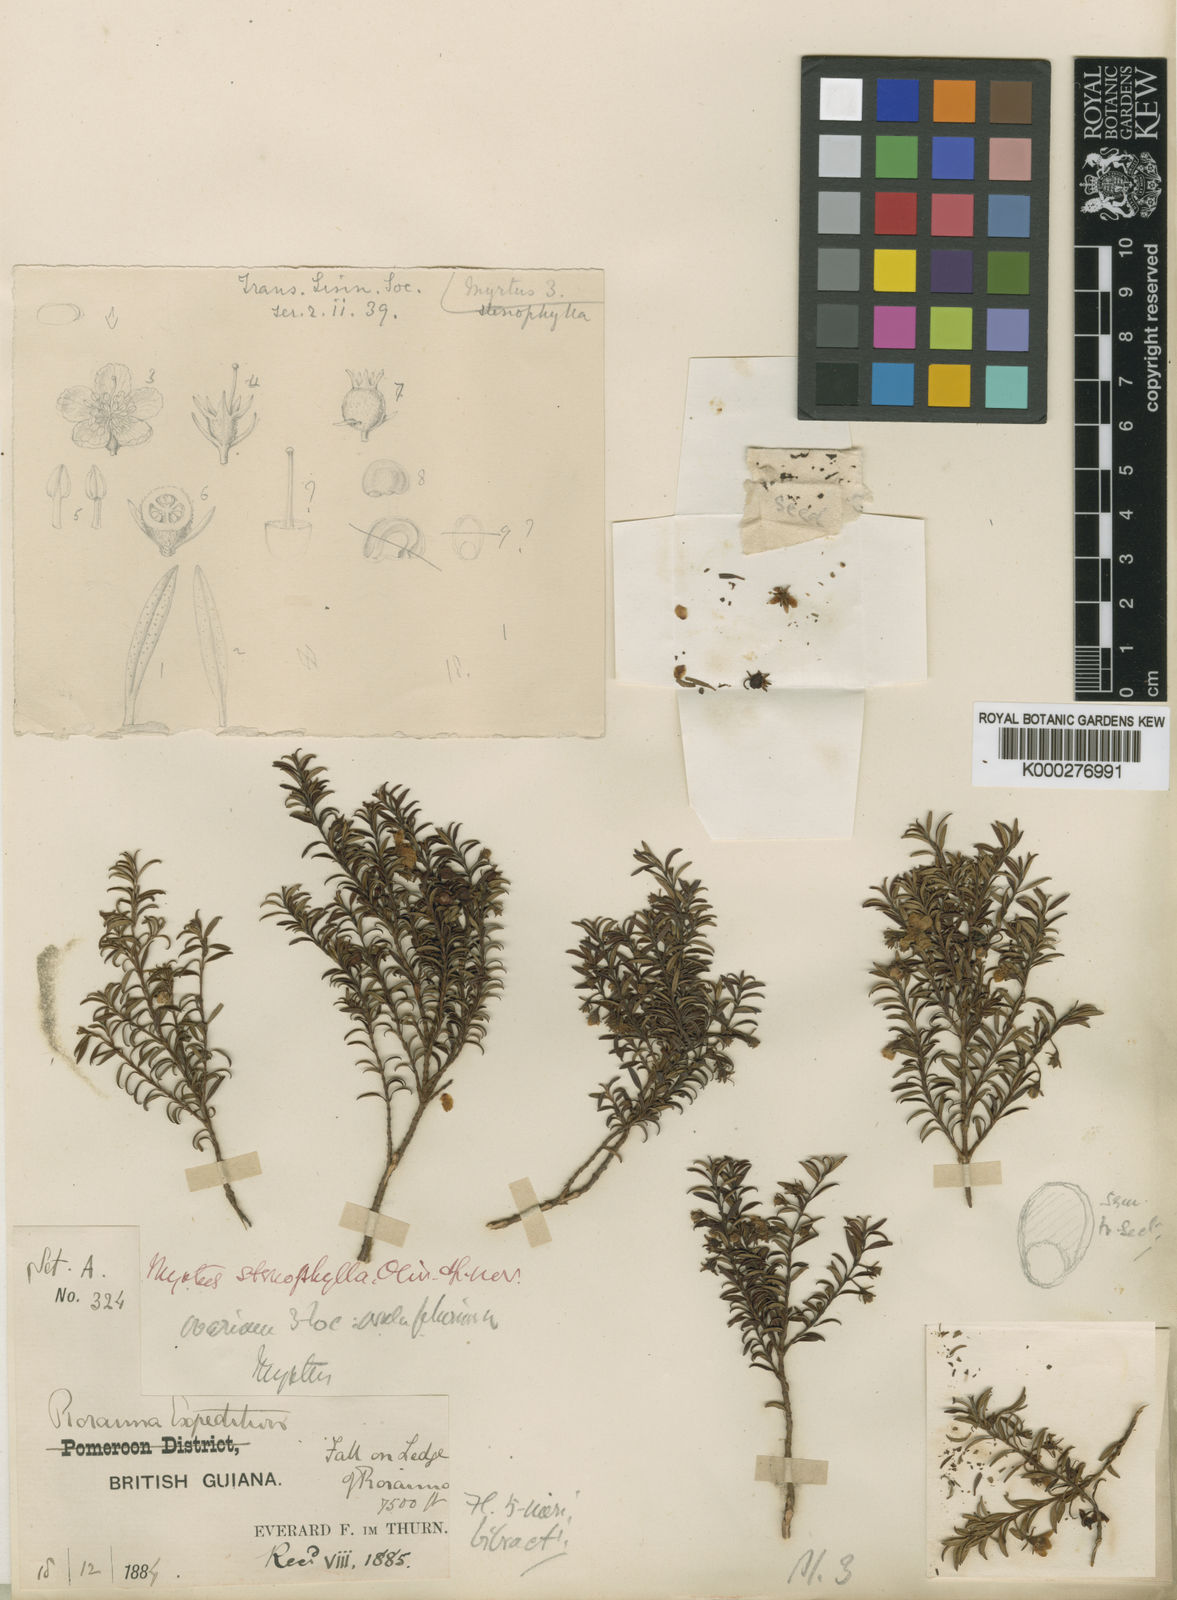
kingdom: Plantae
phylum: Tracheophyta
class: Magnoliopsida
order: Myrtales
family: Myrtaceae
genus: Ugni
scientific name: Ugni
